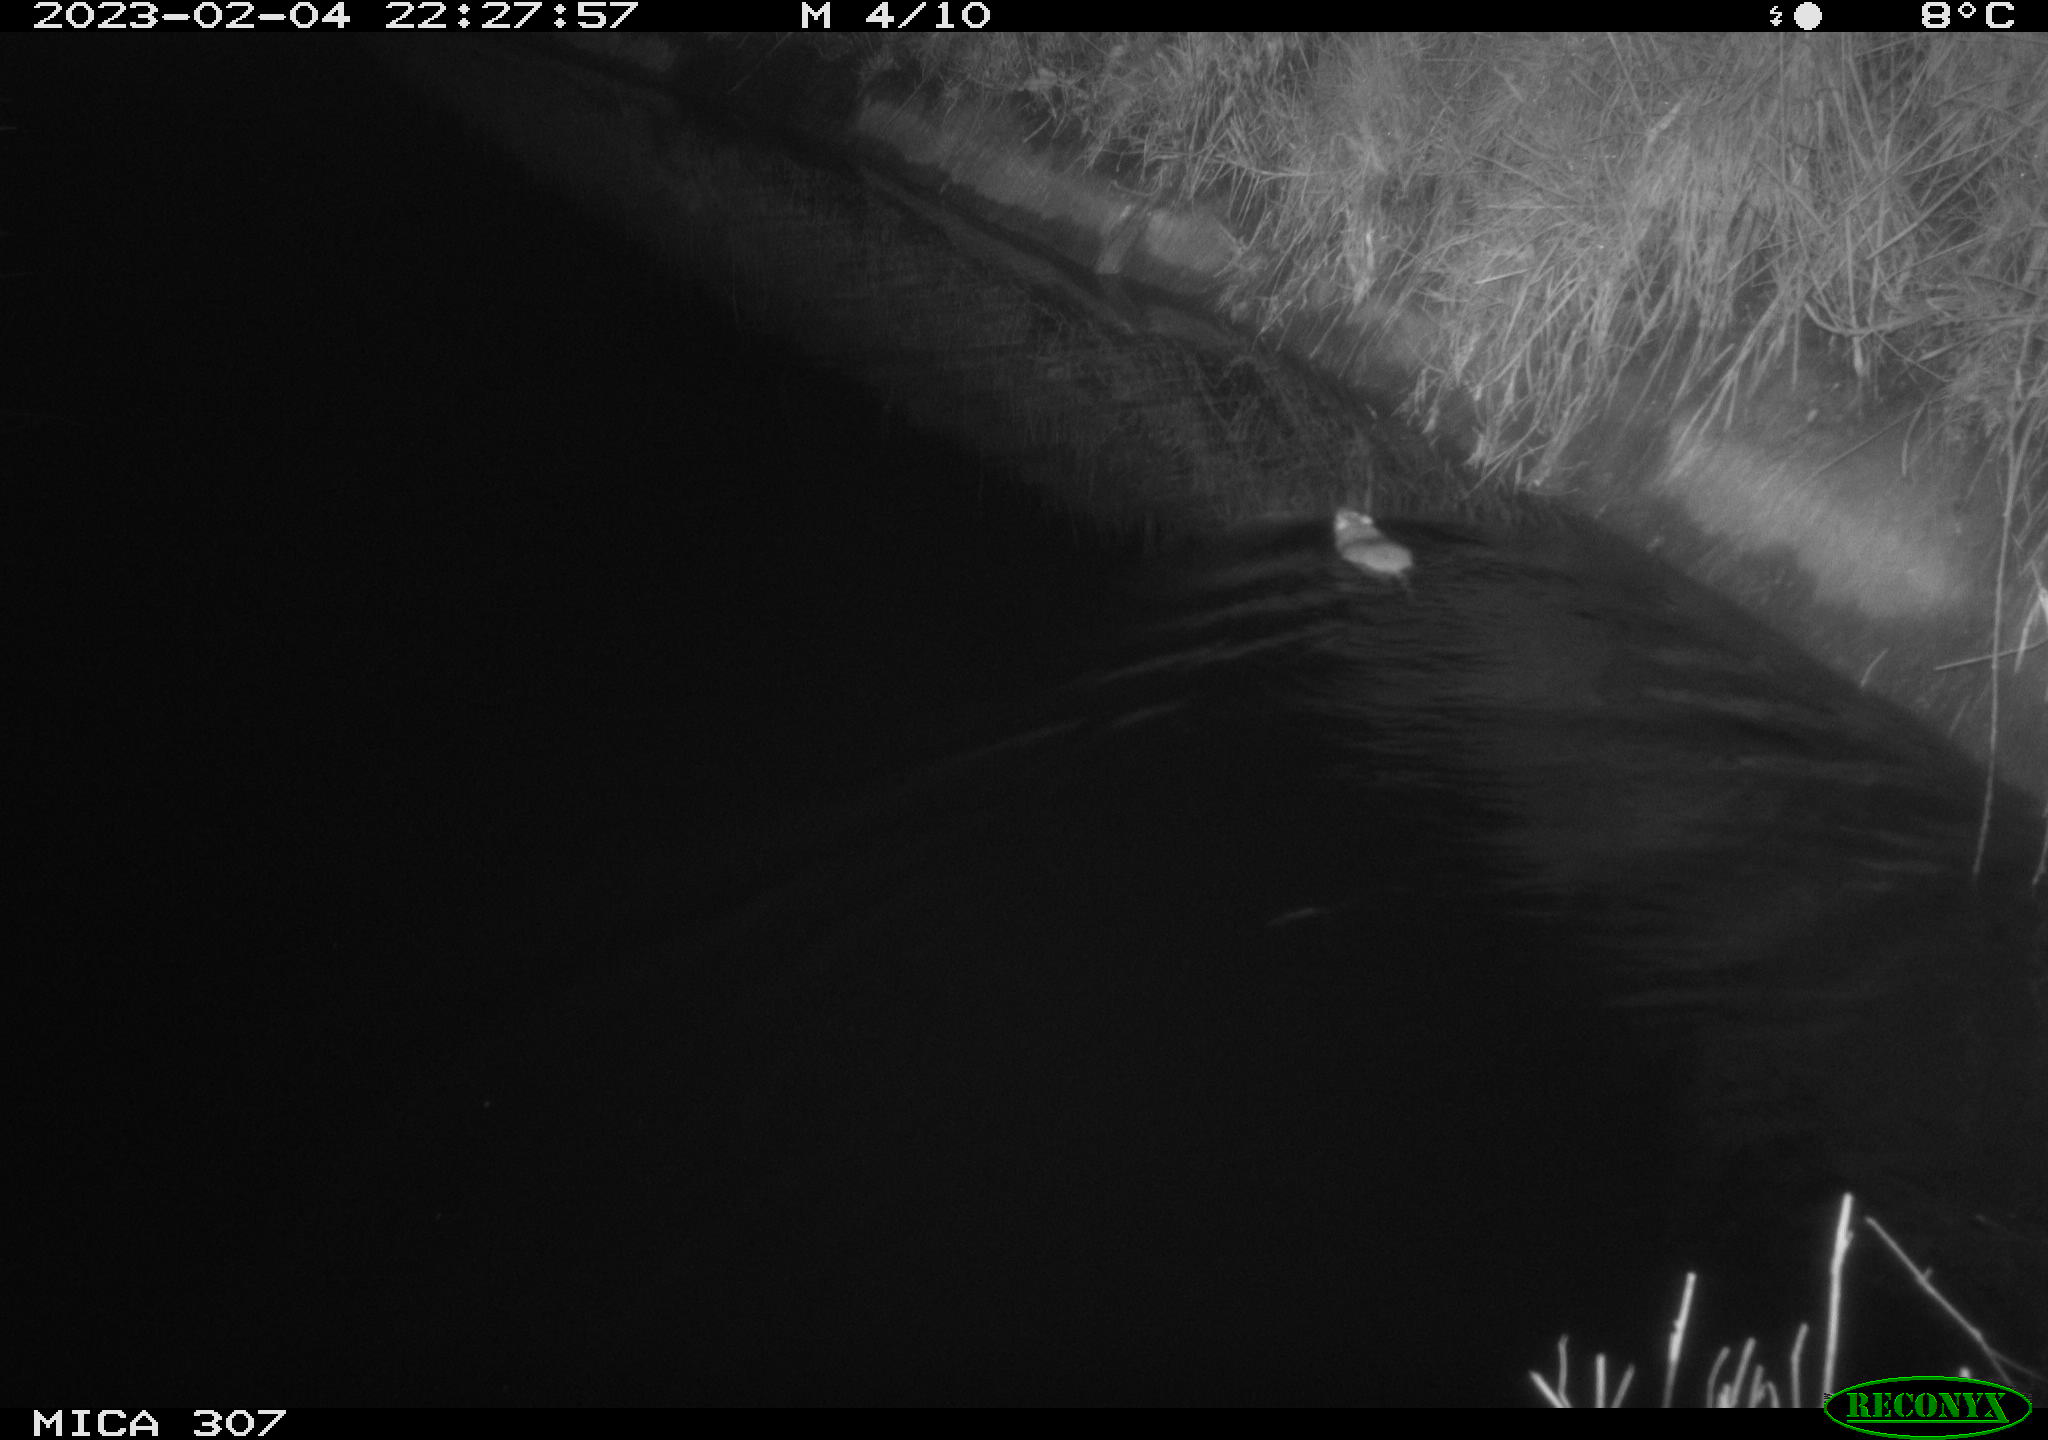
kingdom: Animalia
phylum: Chordata
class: Mammalia
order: Rodentia
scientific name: Rodentia
